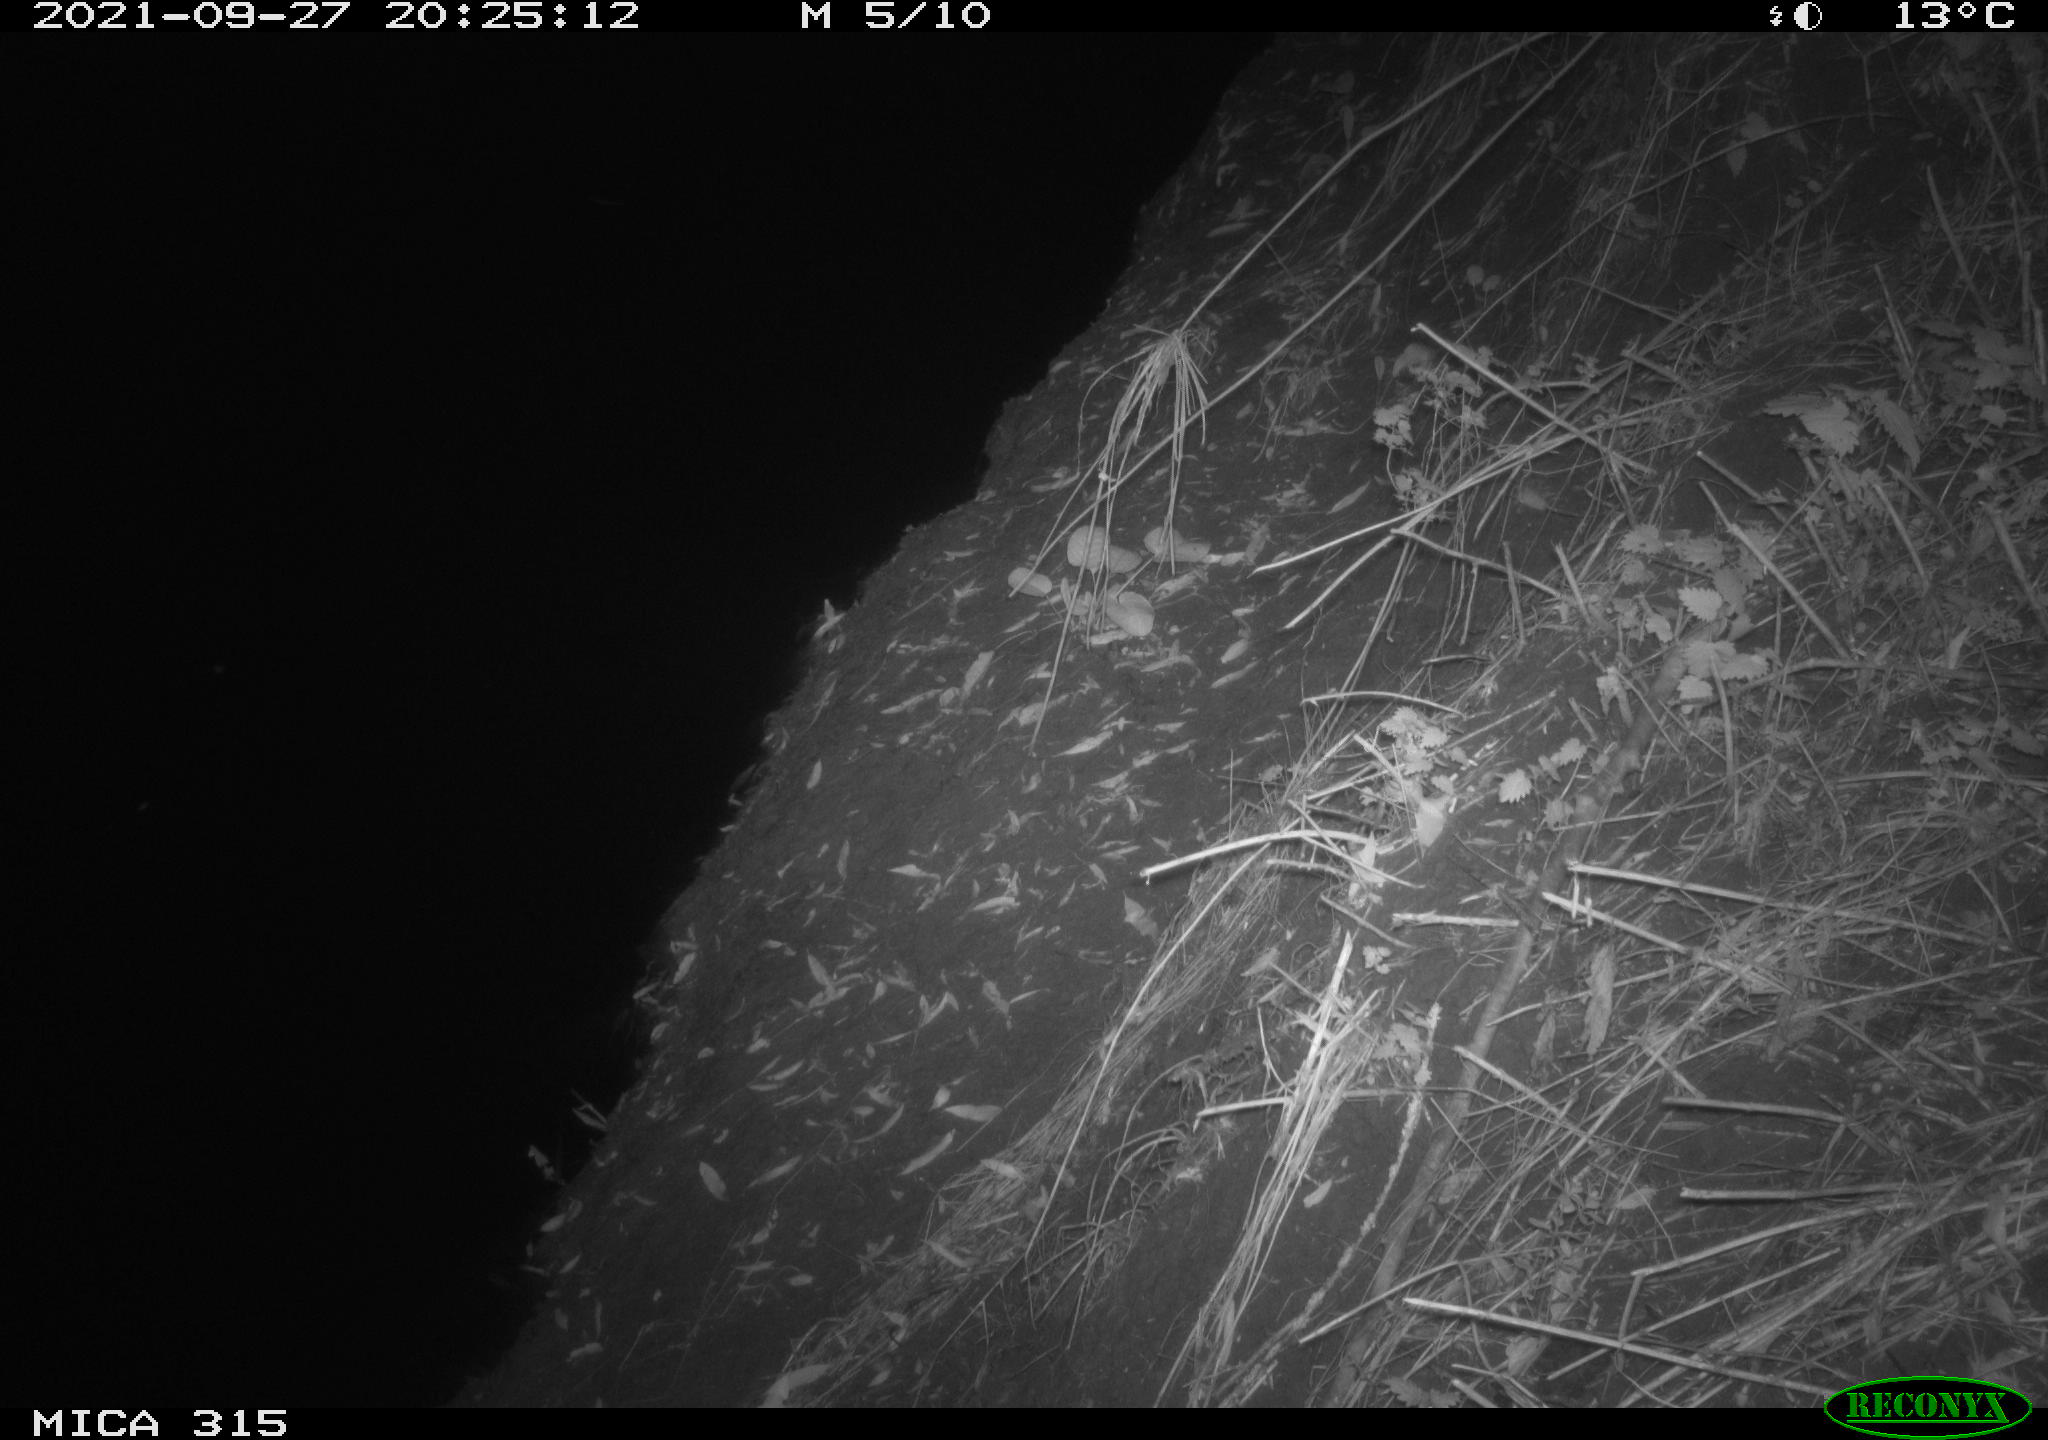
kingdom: Animalia
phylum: Chordata
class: Mammalia
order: Rodentia
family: Muridae
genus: Rattus
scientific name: Rattus norvegicus
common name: Brown rat
